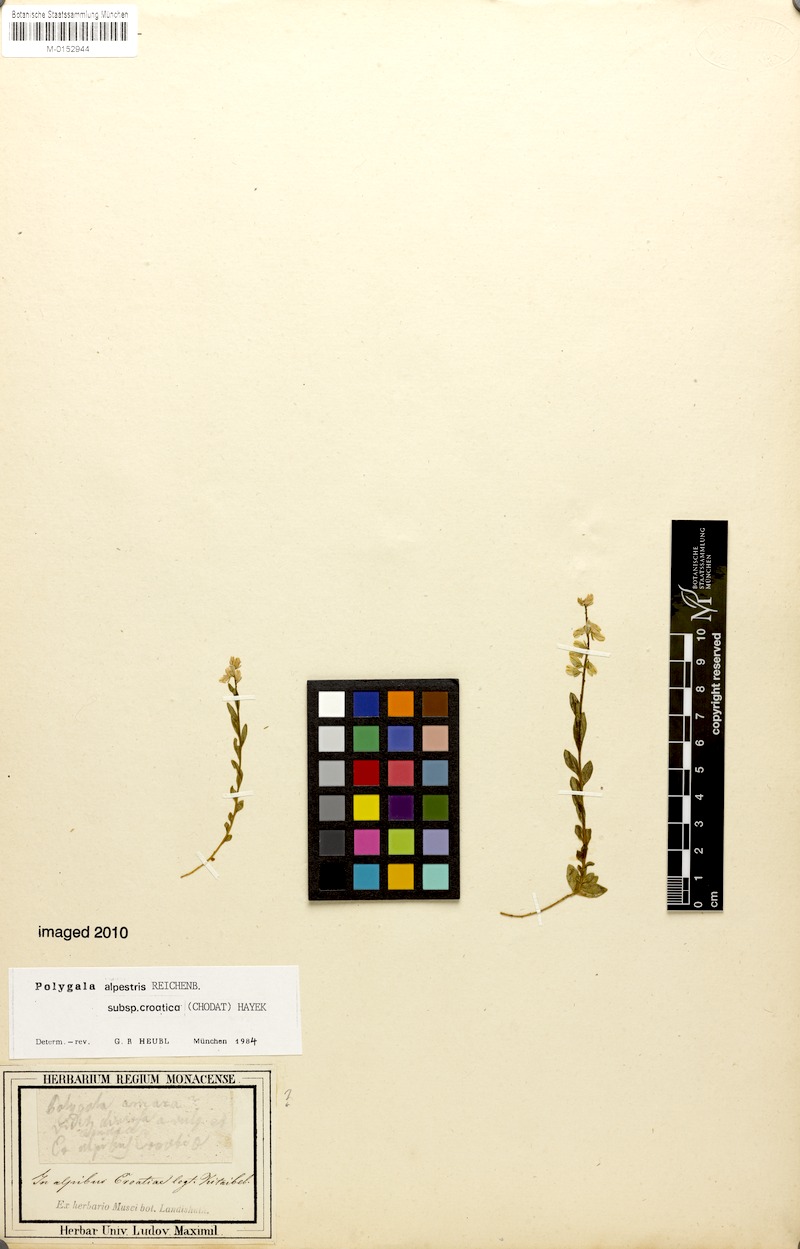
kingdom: Plantae
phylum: Tracheophyta
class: Magnoliopsida
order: Fabales
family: Polygalaceae
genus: Polygala
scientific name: Polygala alpestris
